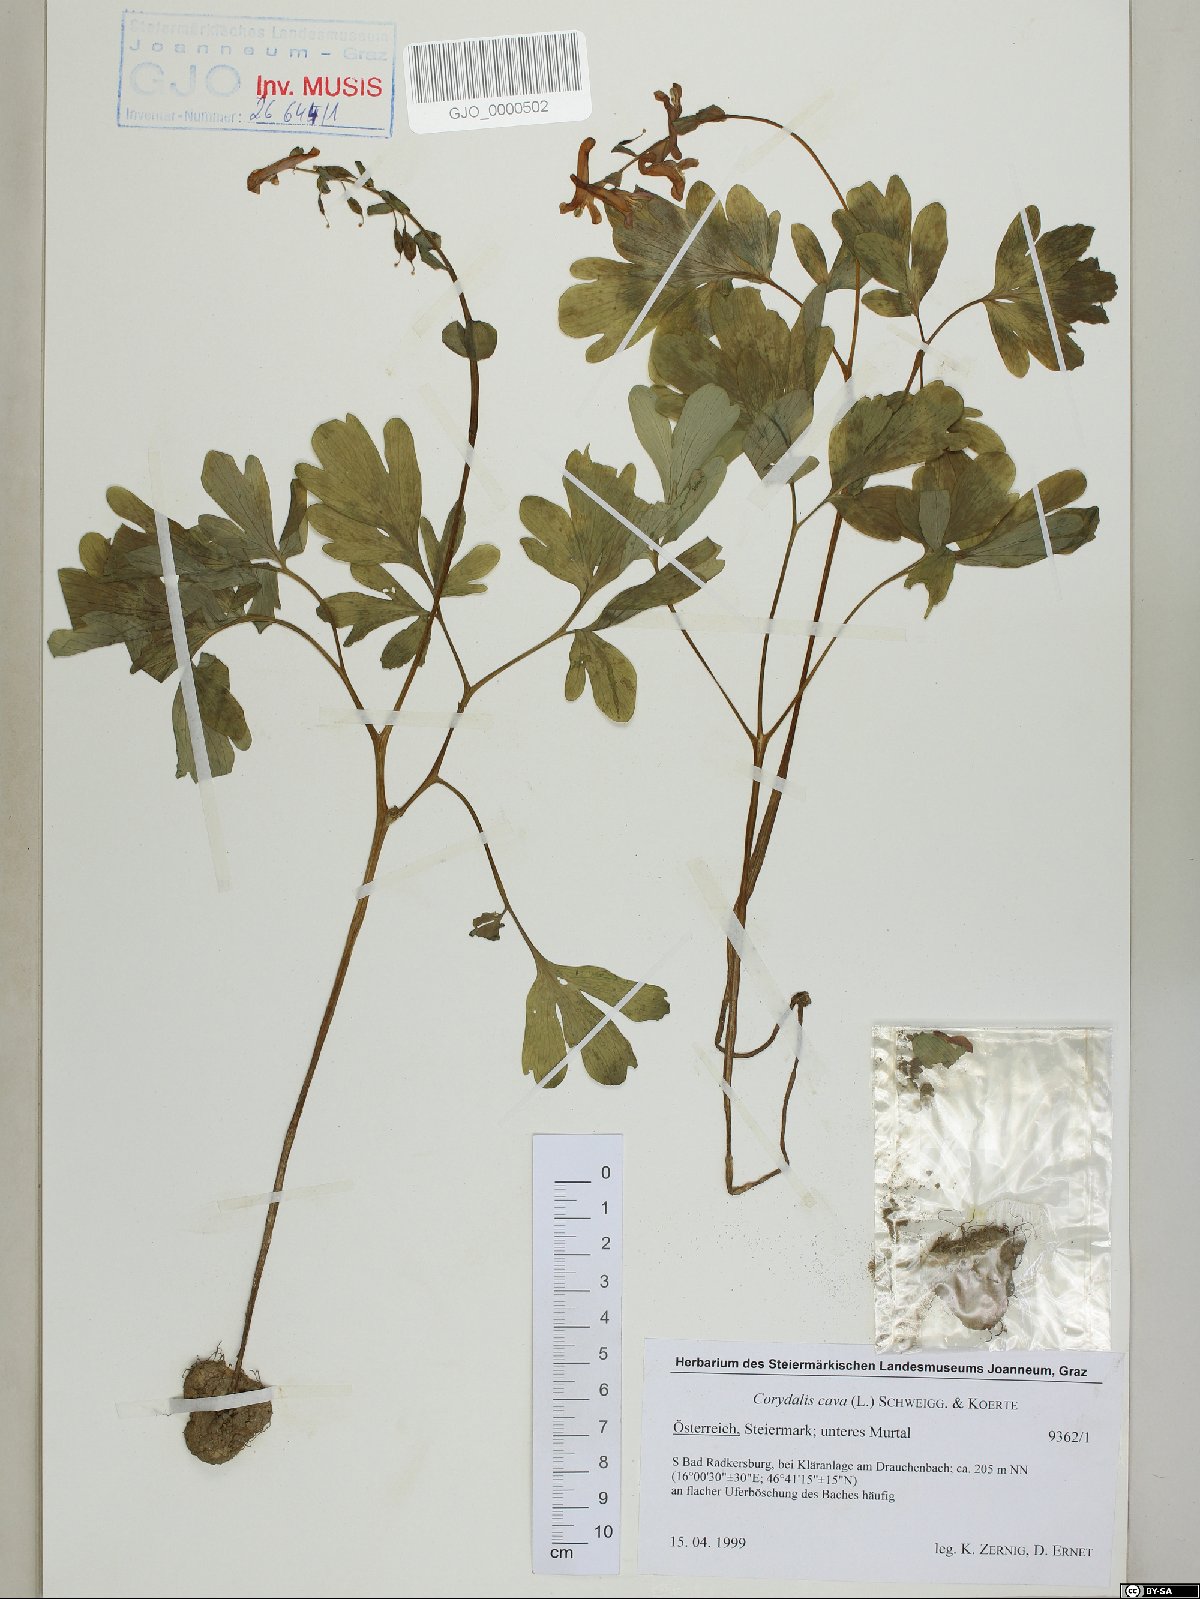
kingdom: Plantae
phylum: Tracheophyta
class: Magnoliopsida
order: Ranunculales
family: Papaveraceae
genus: Corydalis
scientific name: Corydalis cava
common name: Hollowroot
